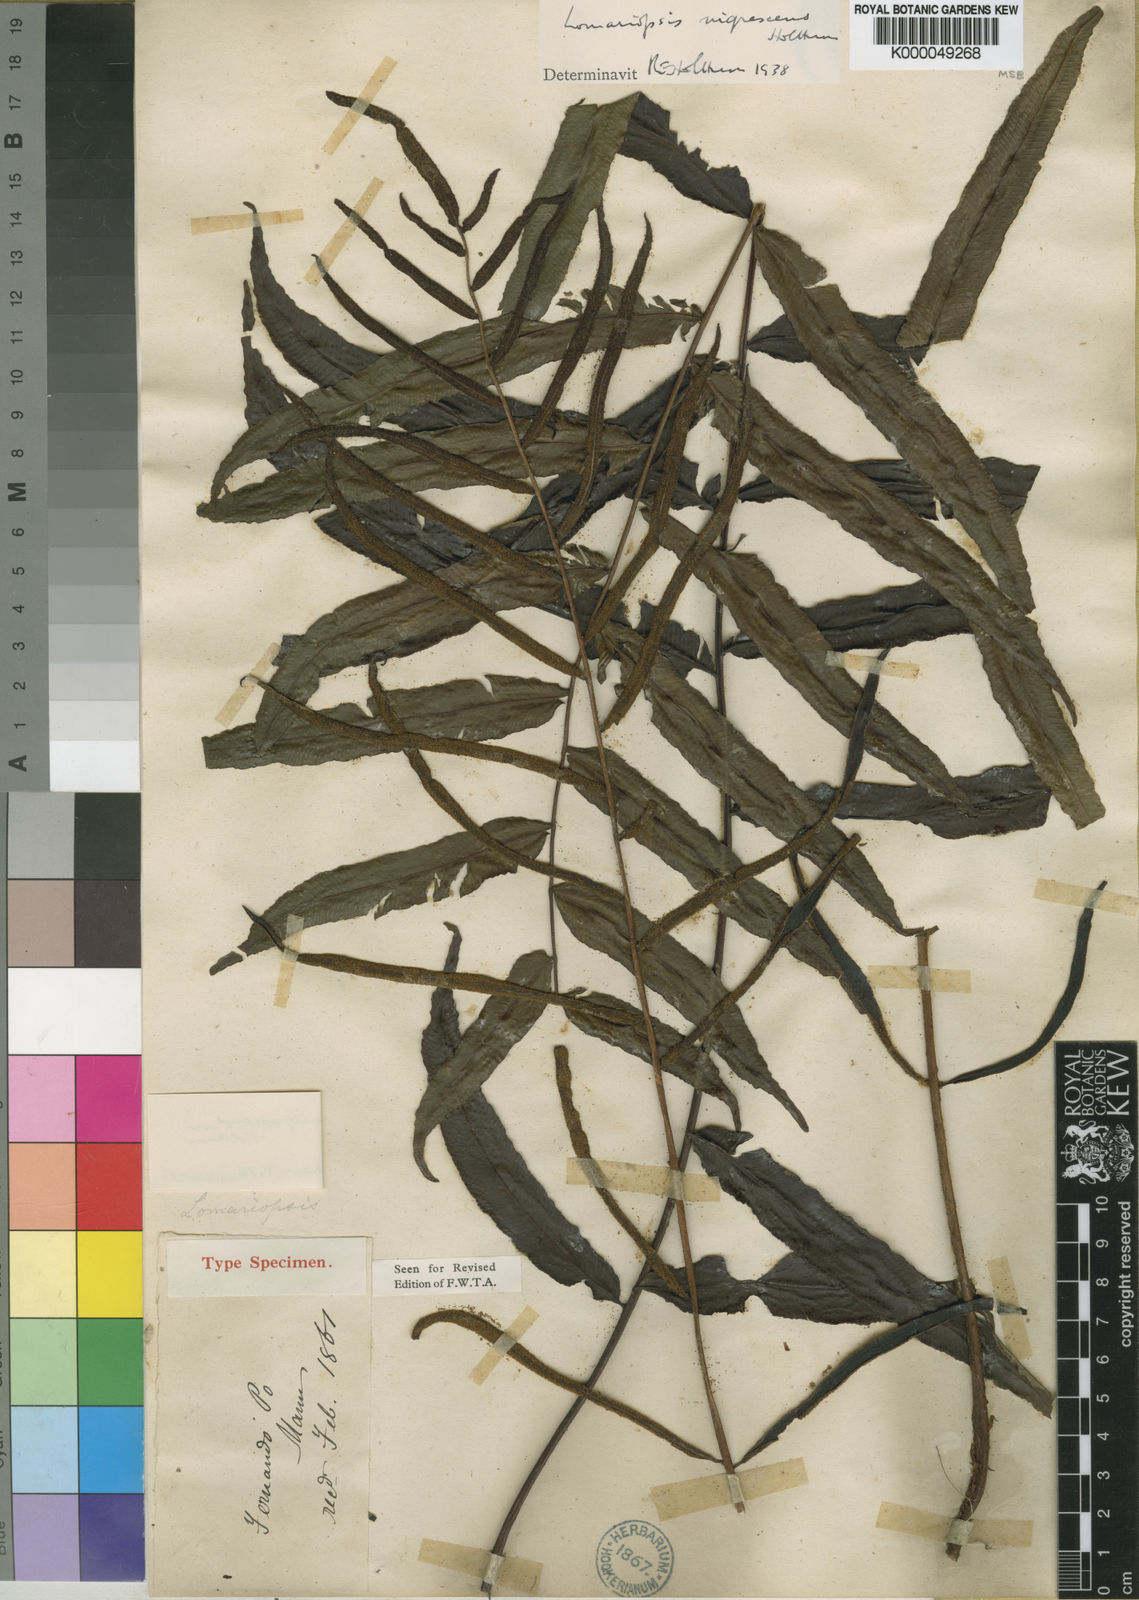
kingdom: Plantae
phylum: Tracheophyta
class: Polypodiopsida
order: Polypodiales
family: Lomariopsidaceae
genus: Lomariopsis
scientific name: Lomariopsis warneckei
